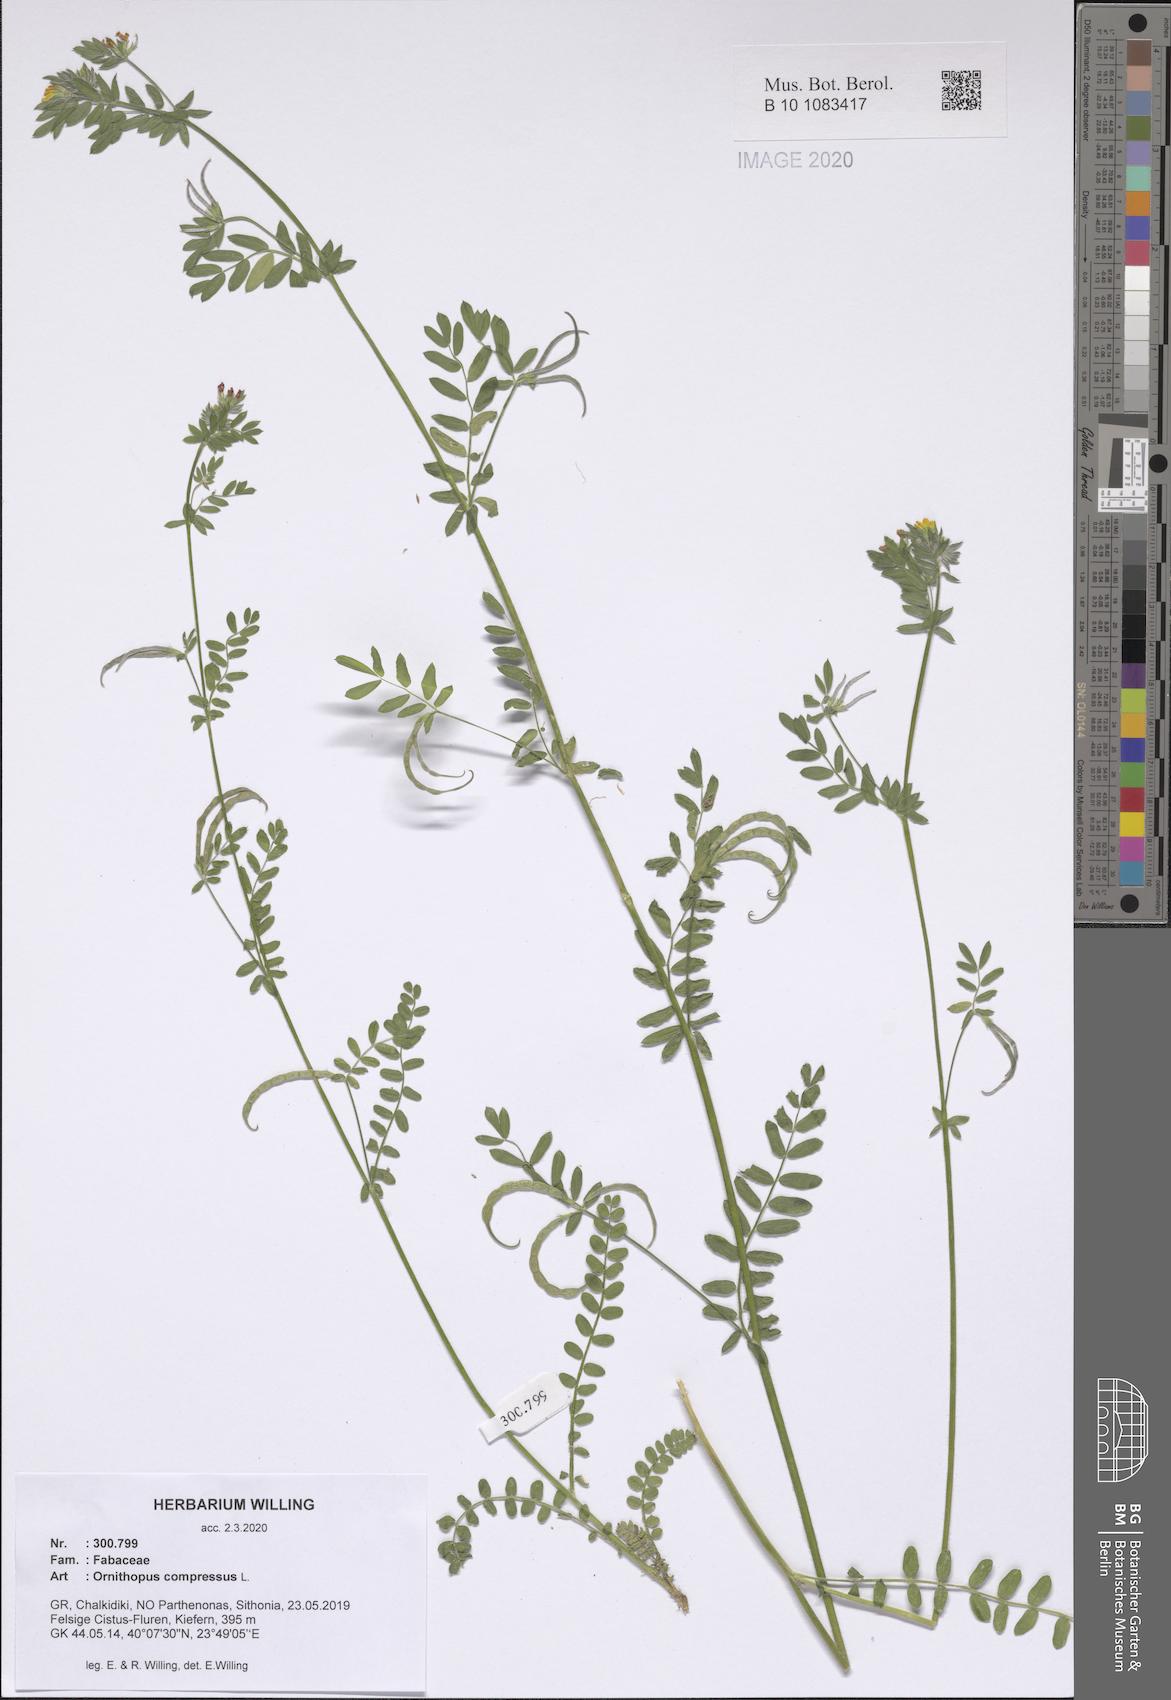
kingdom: Plantae
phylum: Tracheophyta
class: Magnoliopsida
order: Fabales
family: Fabaceae
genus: Ornithopus
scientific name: Ornithopus compressus
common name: Yellow serradella
